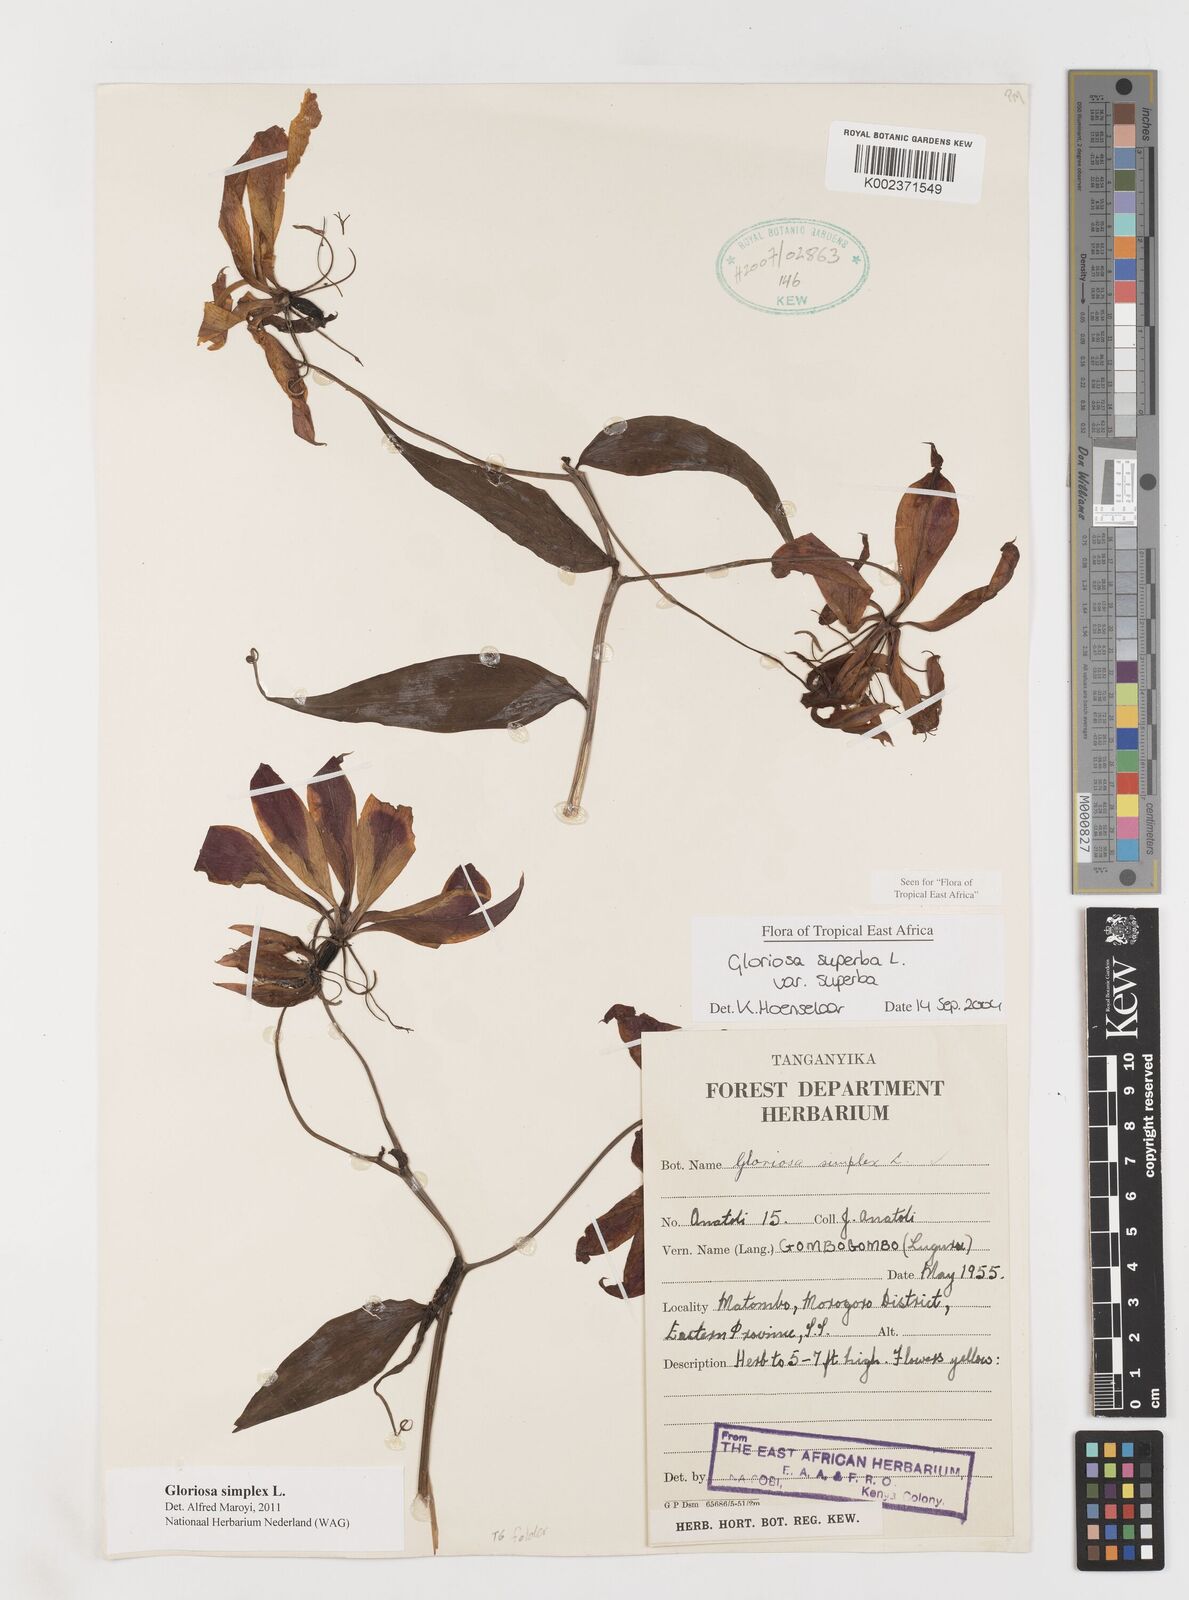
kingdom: Plantae
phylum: Tracheophyta
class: Liliopsida
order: Liliales
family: Colchicaceae
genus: Gloriosa
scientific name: Gloriosa simplex
